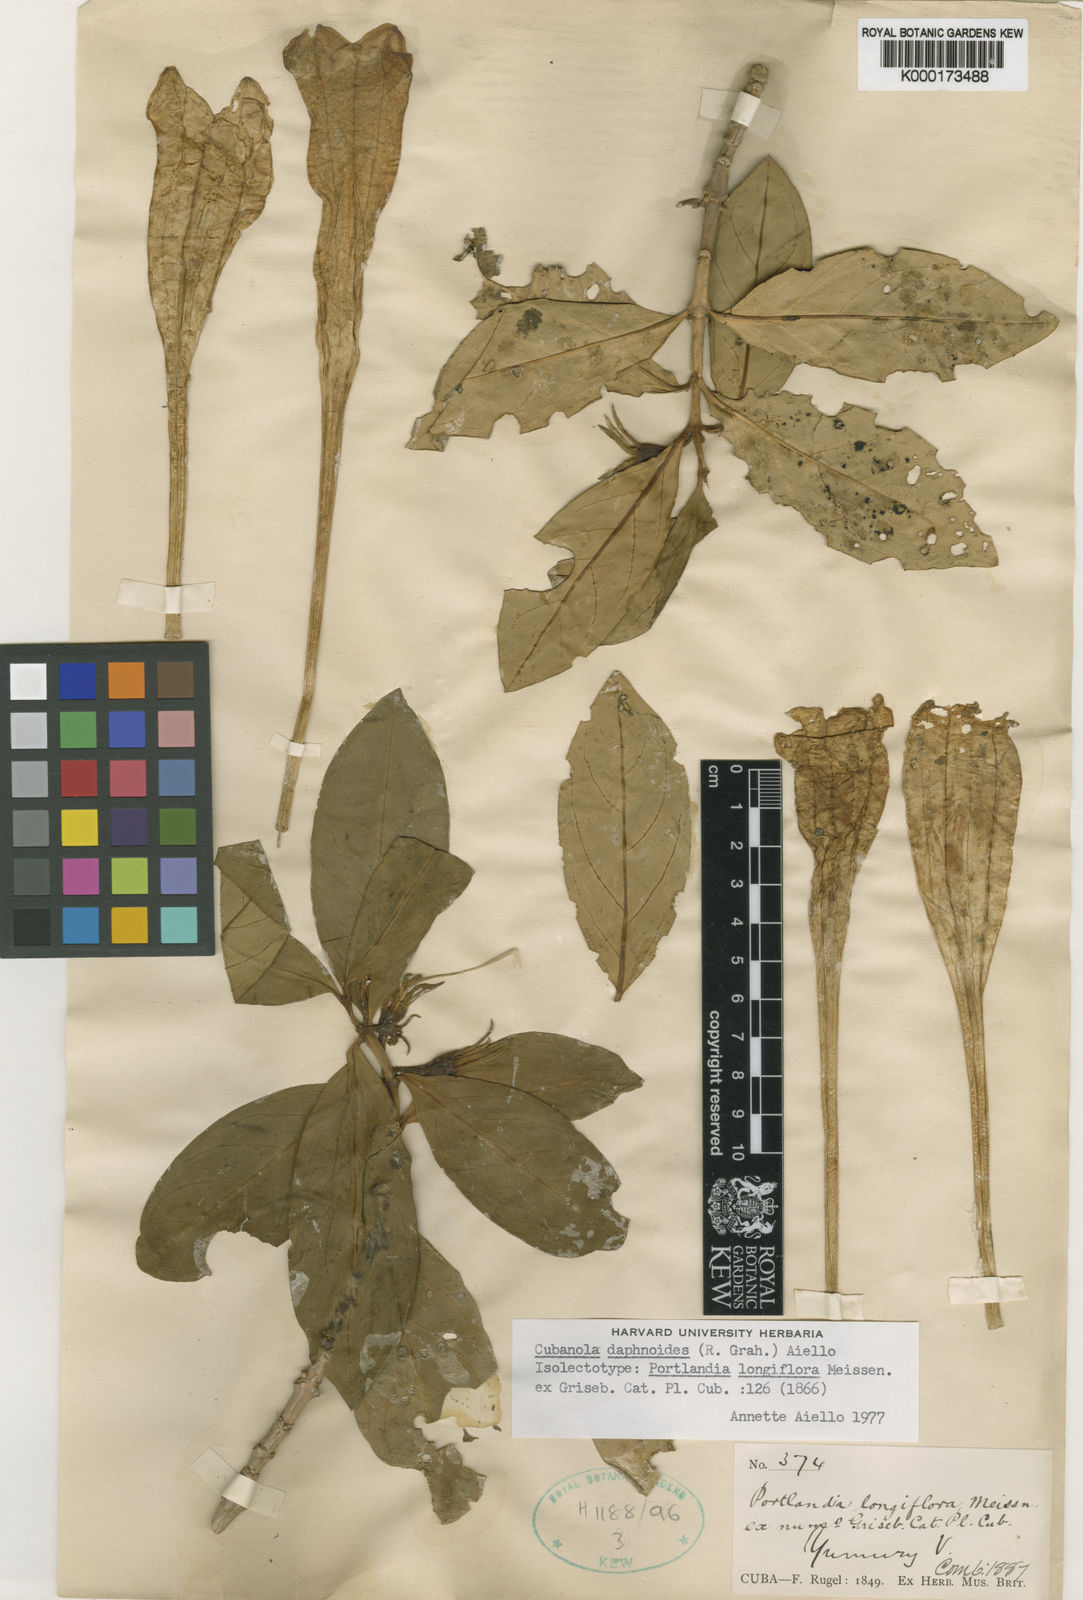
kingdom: Plantae
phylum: Tracheophyta
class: Magnoliopsida
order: Gentianales
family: Rubiaceae
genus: Cubanola
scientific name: Cubanola daphnoides
